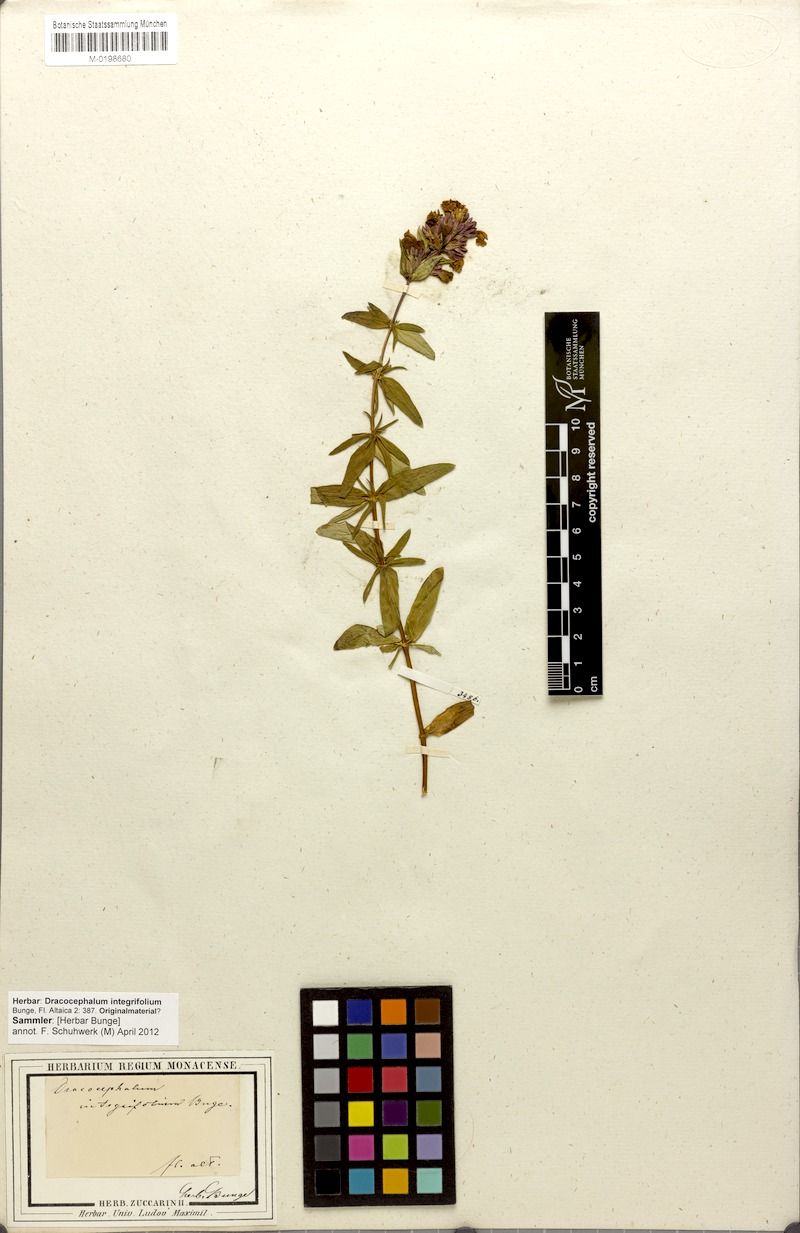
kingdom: Plantae
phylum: Tracheophyta
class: Magnoliopsida
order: Lamiales
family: Lamiaceae
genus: Dracocephalum
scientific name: Dracocephalum integrifolium
